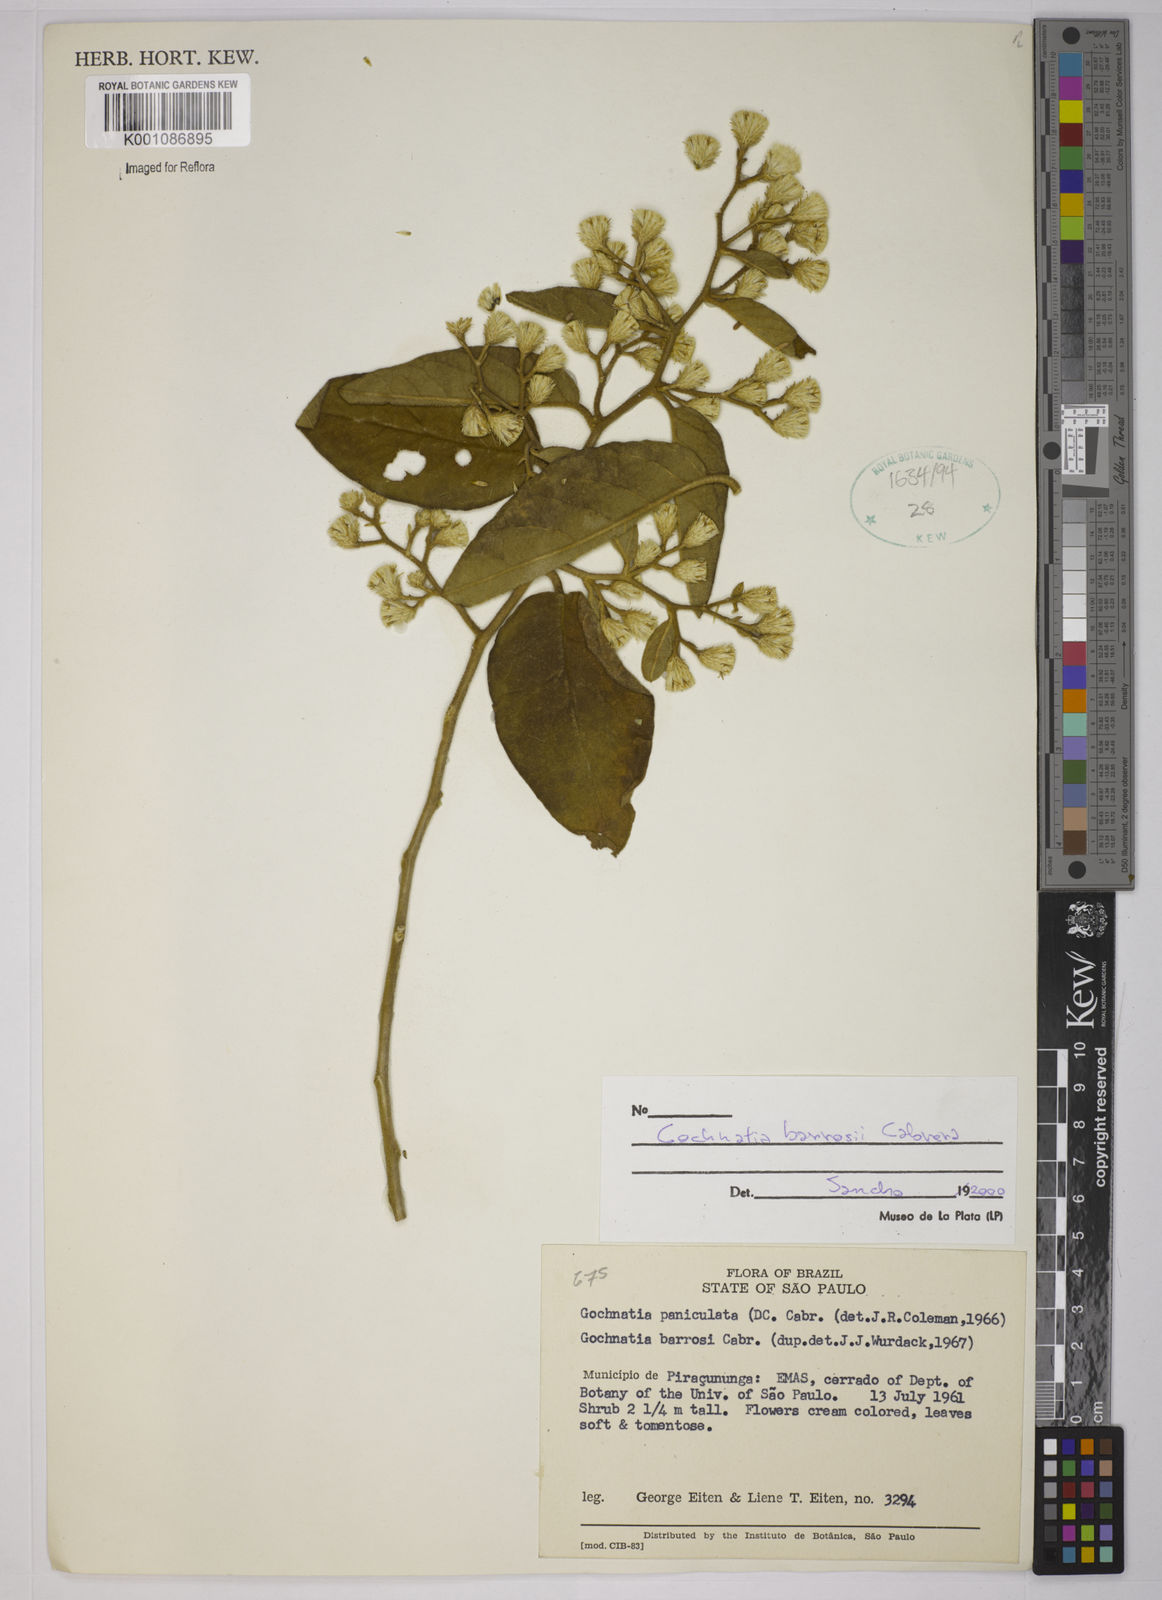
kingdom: Plantae
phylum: Tracheophyta
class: Magnoliopsida
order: Asterales
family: Asteraceae
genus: Moquiniastrum
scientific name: Moquiniastrum barrosoae
